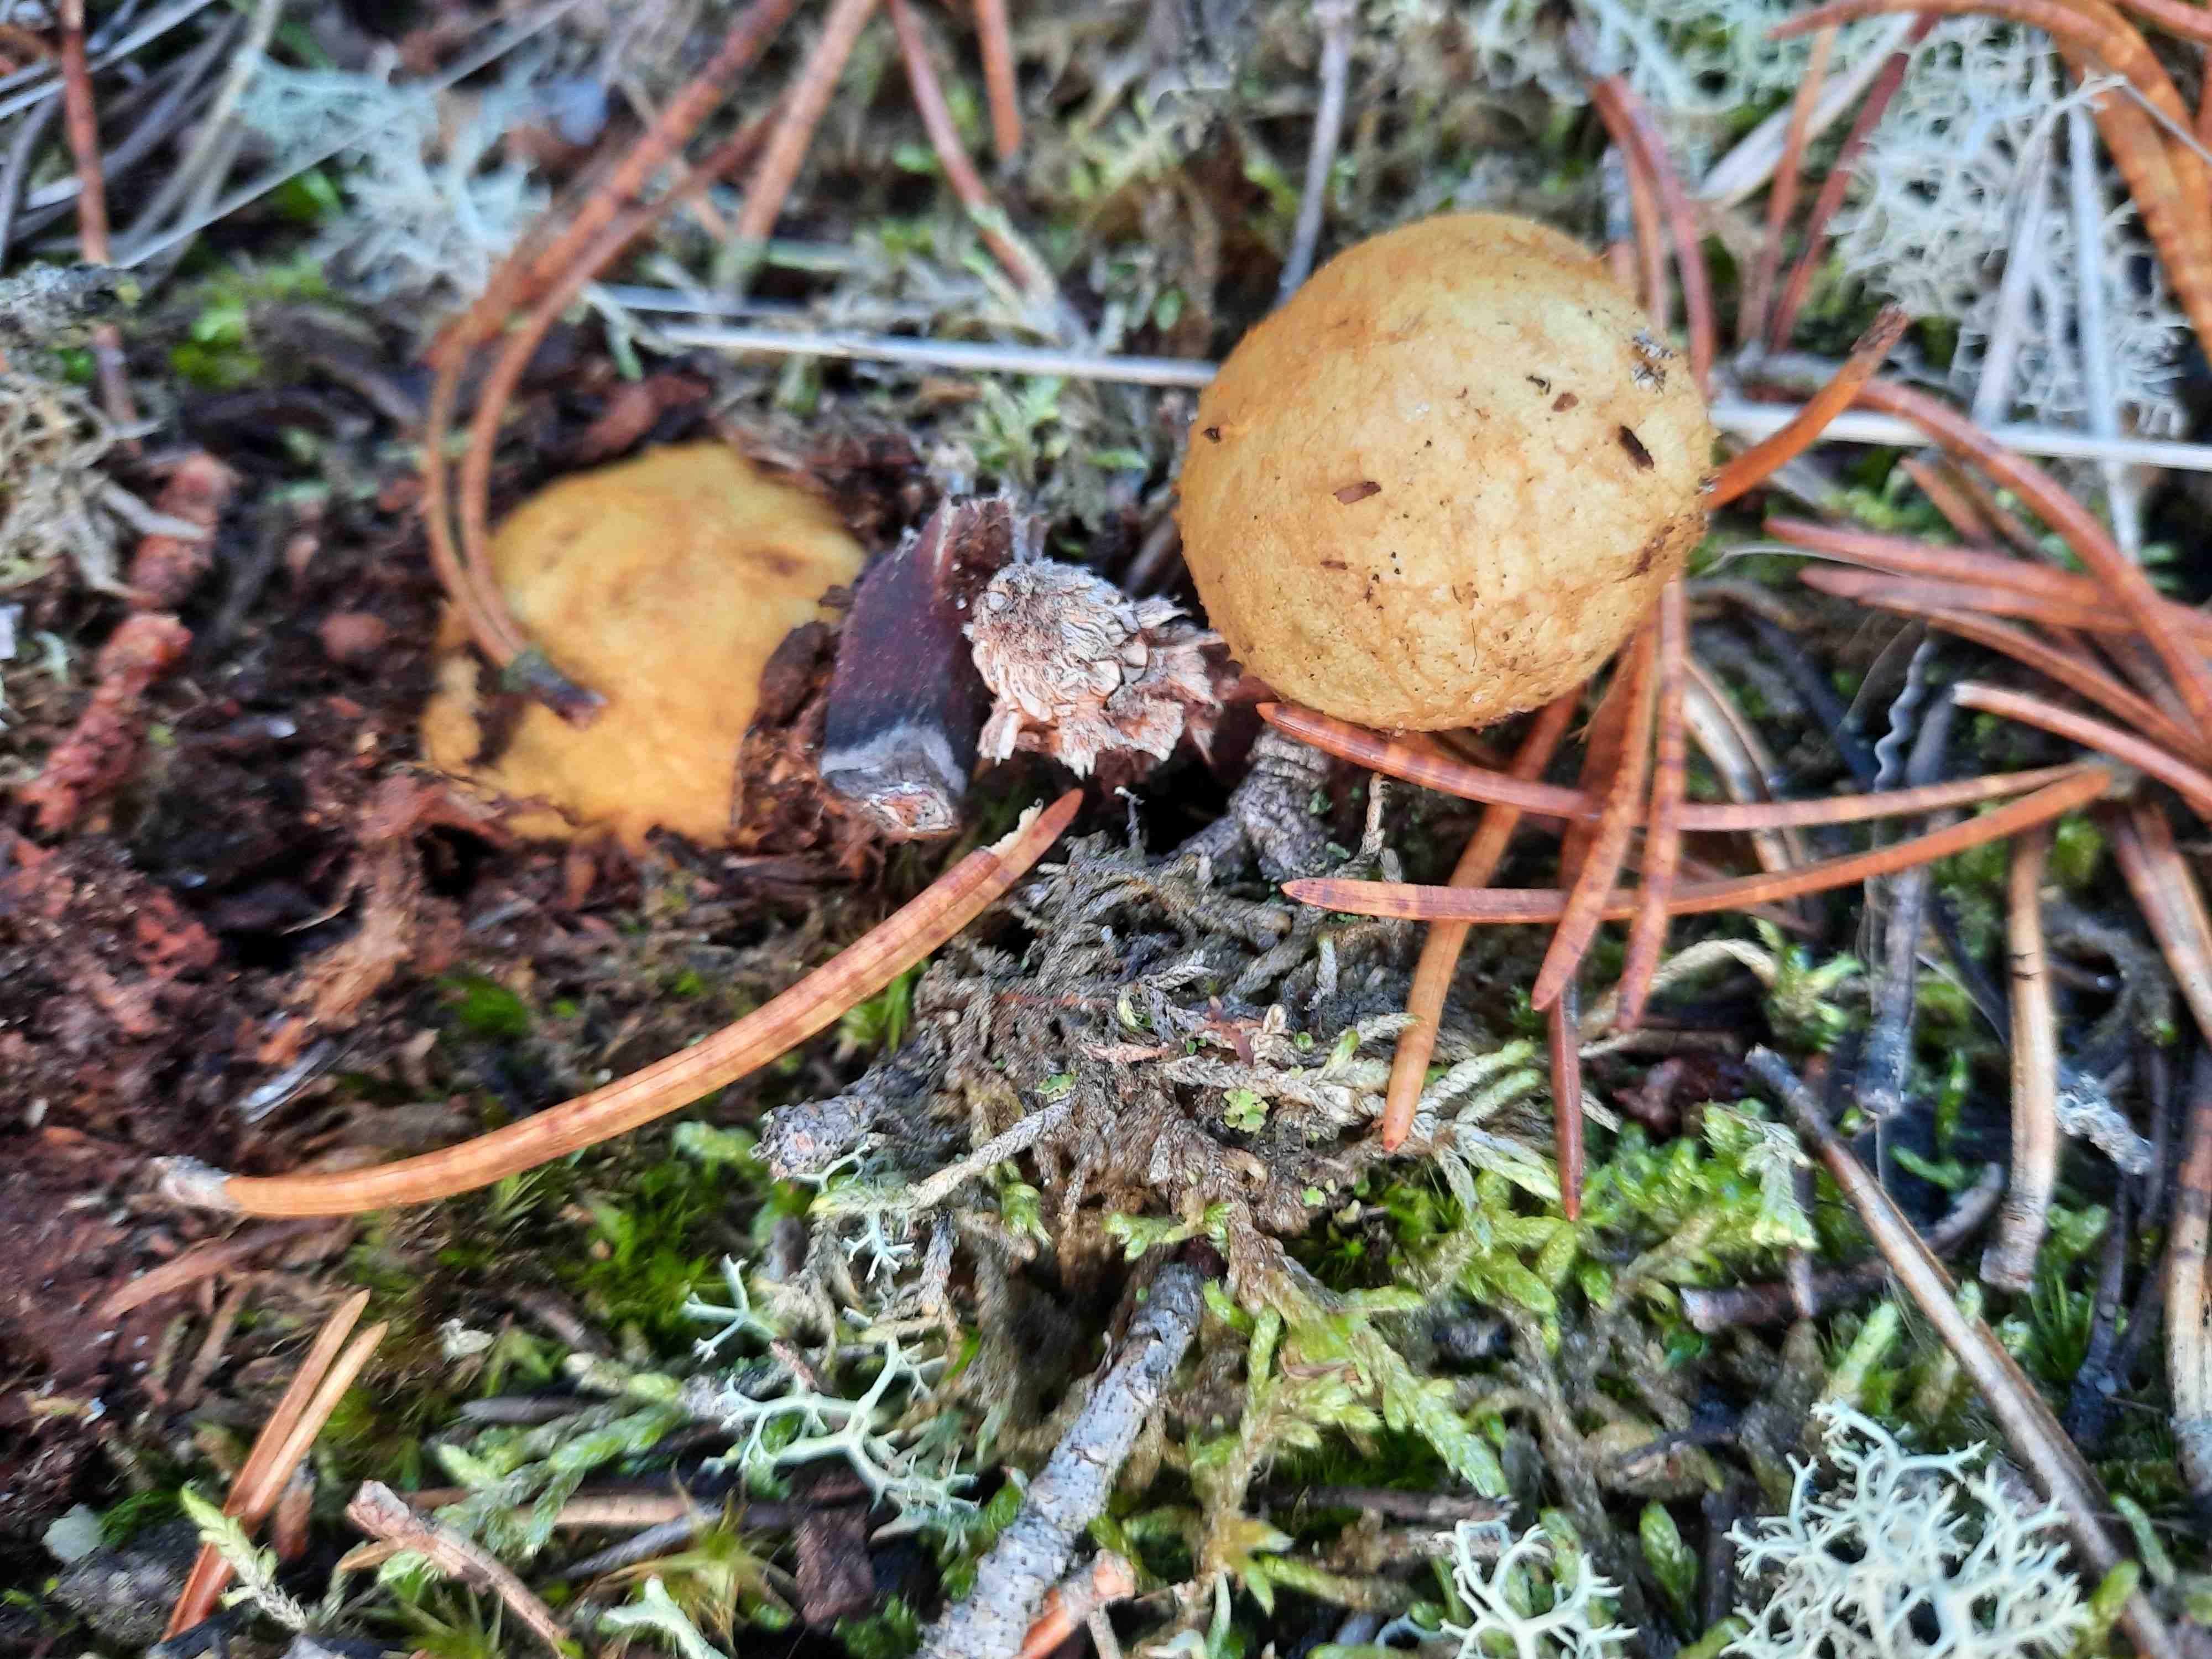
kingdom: Fungi
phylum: Basidiomycota
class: Agaricomycetes
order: Boletales
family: Rhizopogonaceae
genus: Rhizopogon
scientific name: Rhizopogon obtextus
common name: gul skægtrøffel
